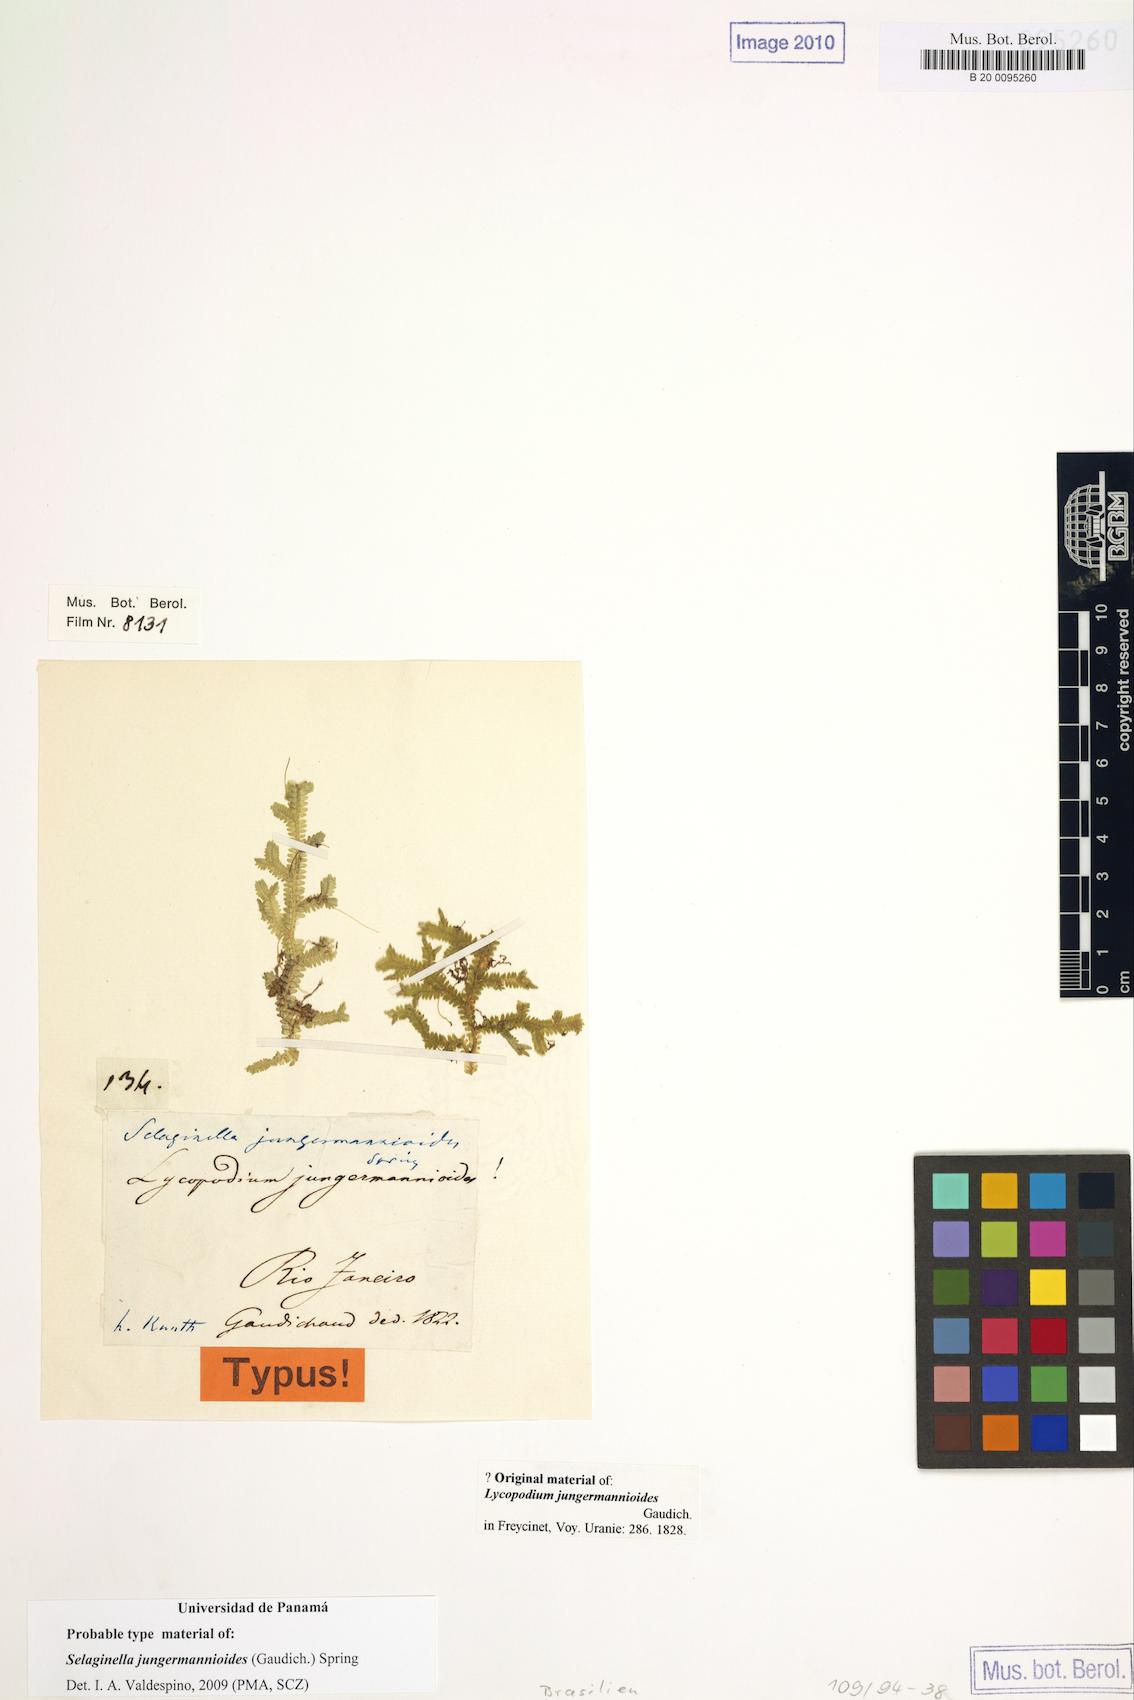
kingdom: Plantae
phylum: Tracheophyta
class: Lycopodiopsida
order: Selaginellales
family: Selaginellaceae
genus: Selaginella
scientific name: Selaginella jungermannioides
